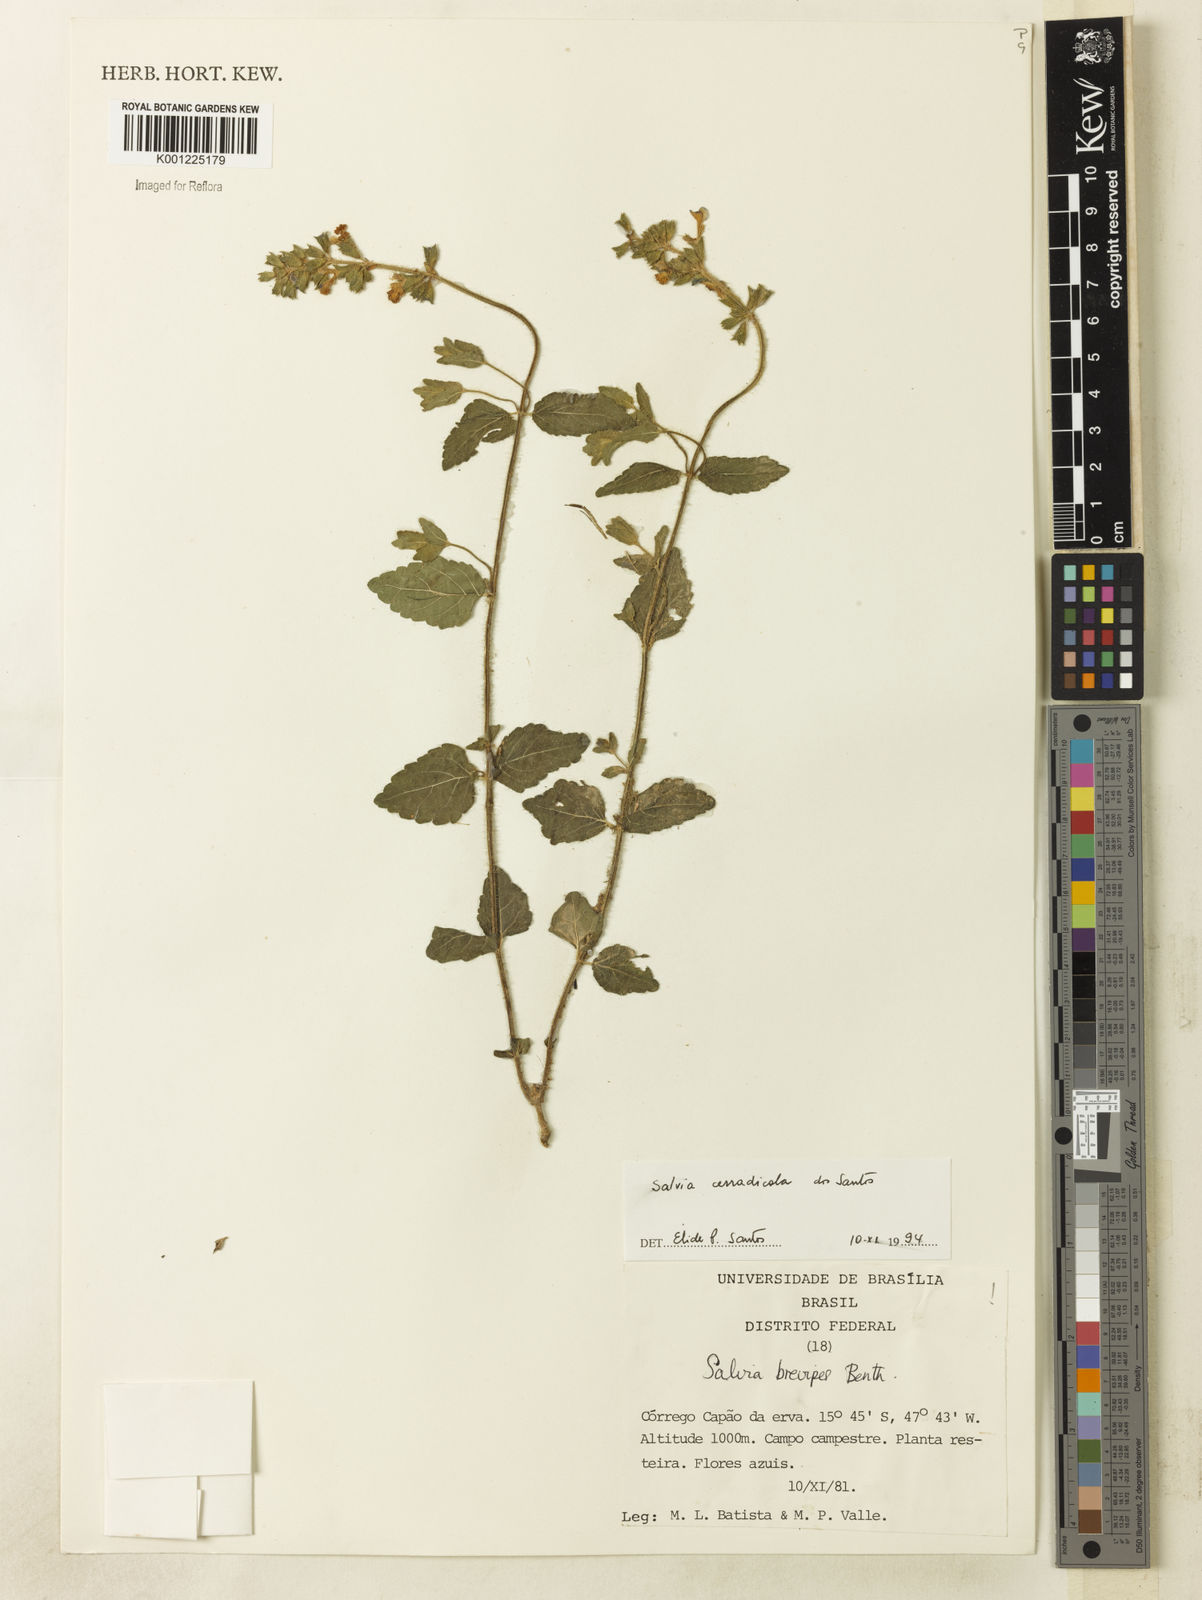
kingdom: Plantae
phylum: Tracheophyta
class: Magnoliopsida
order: Lamiales
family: Lamiaceae
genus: Salvia
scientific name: Salvia cerradicola
